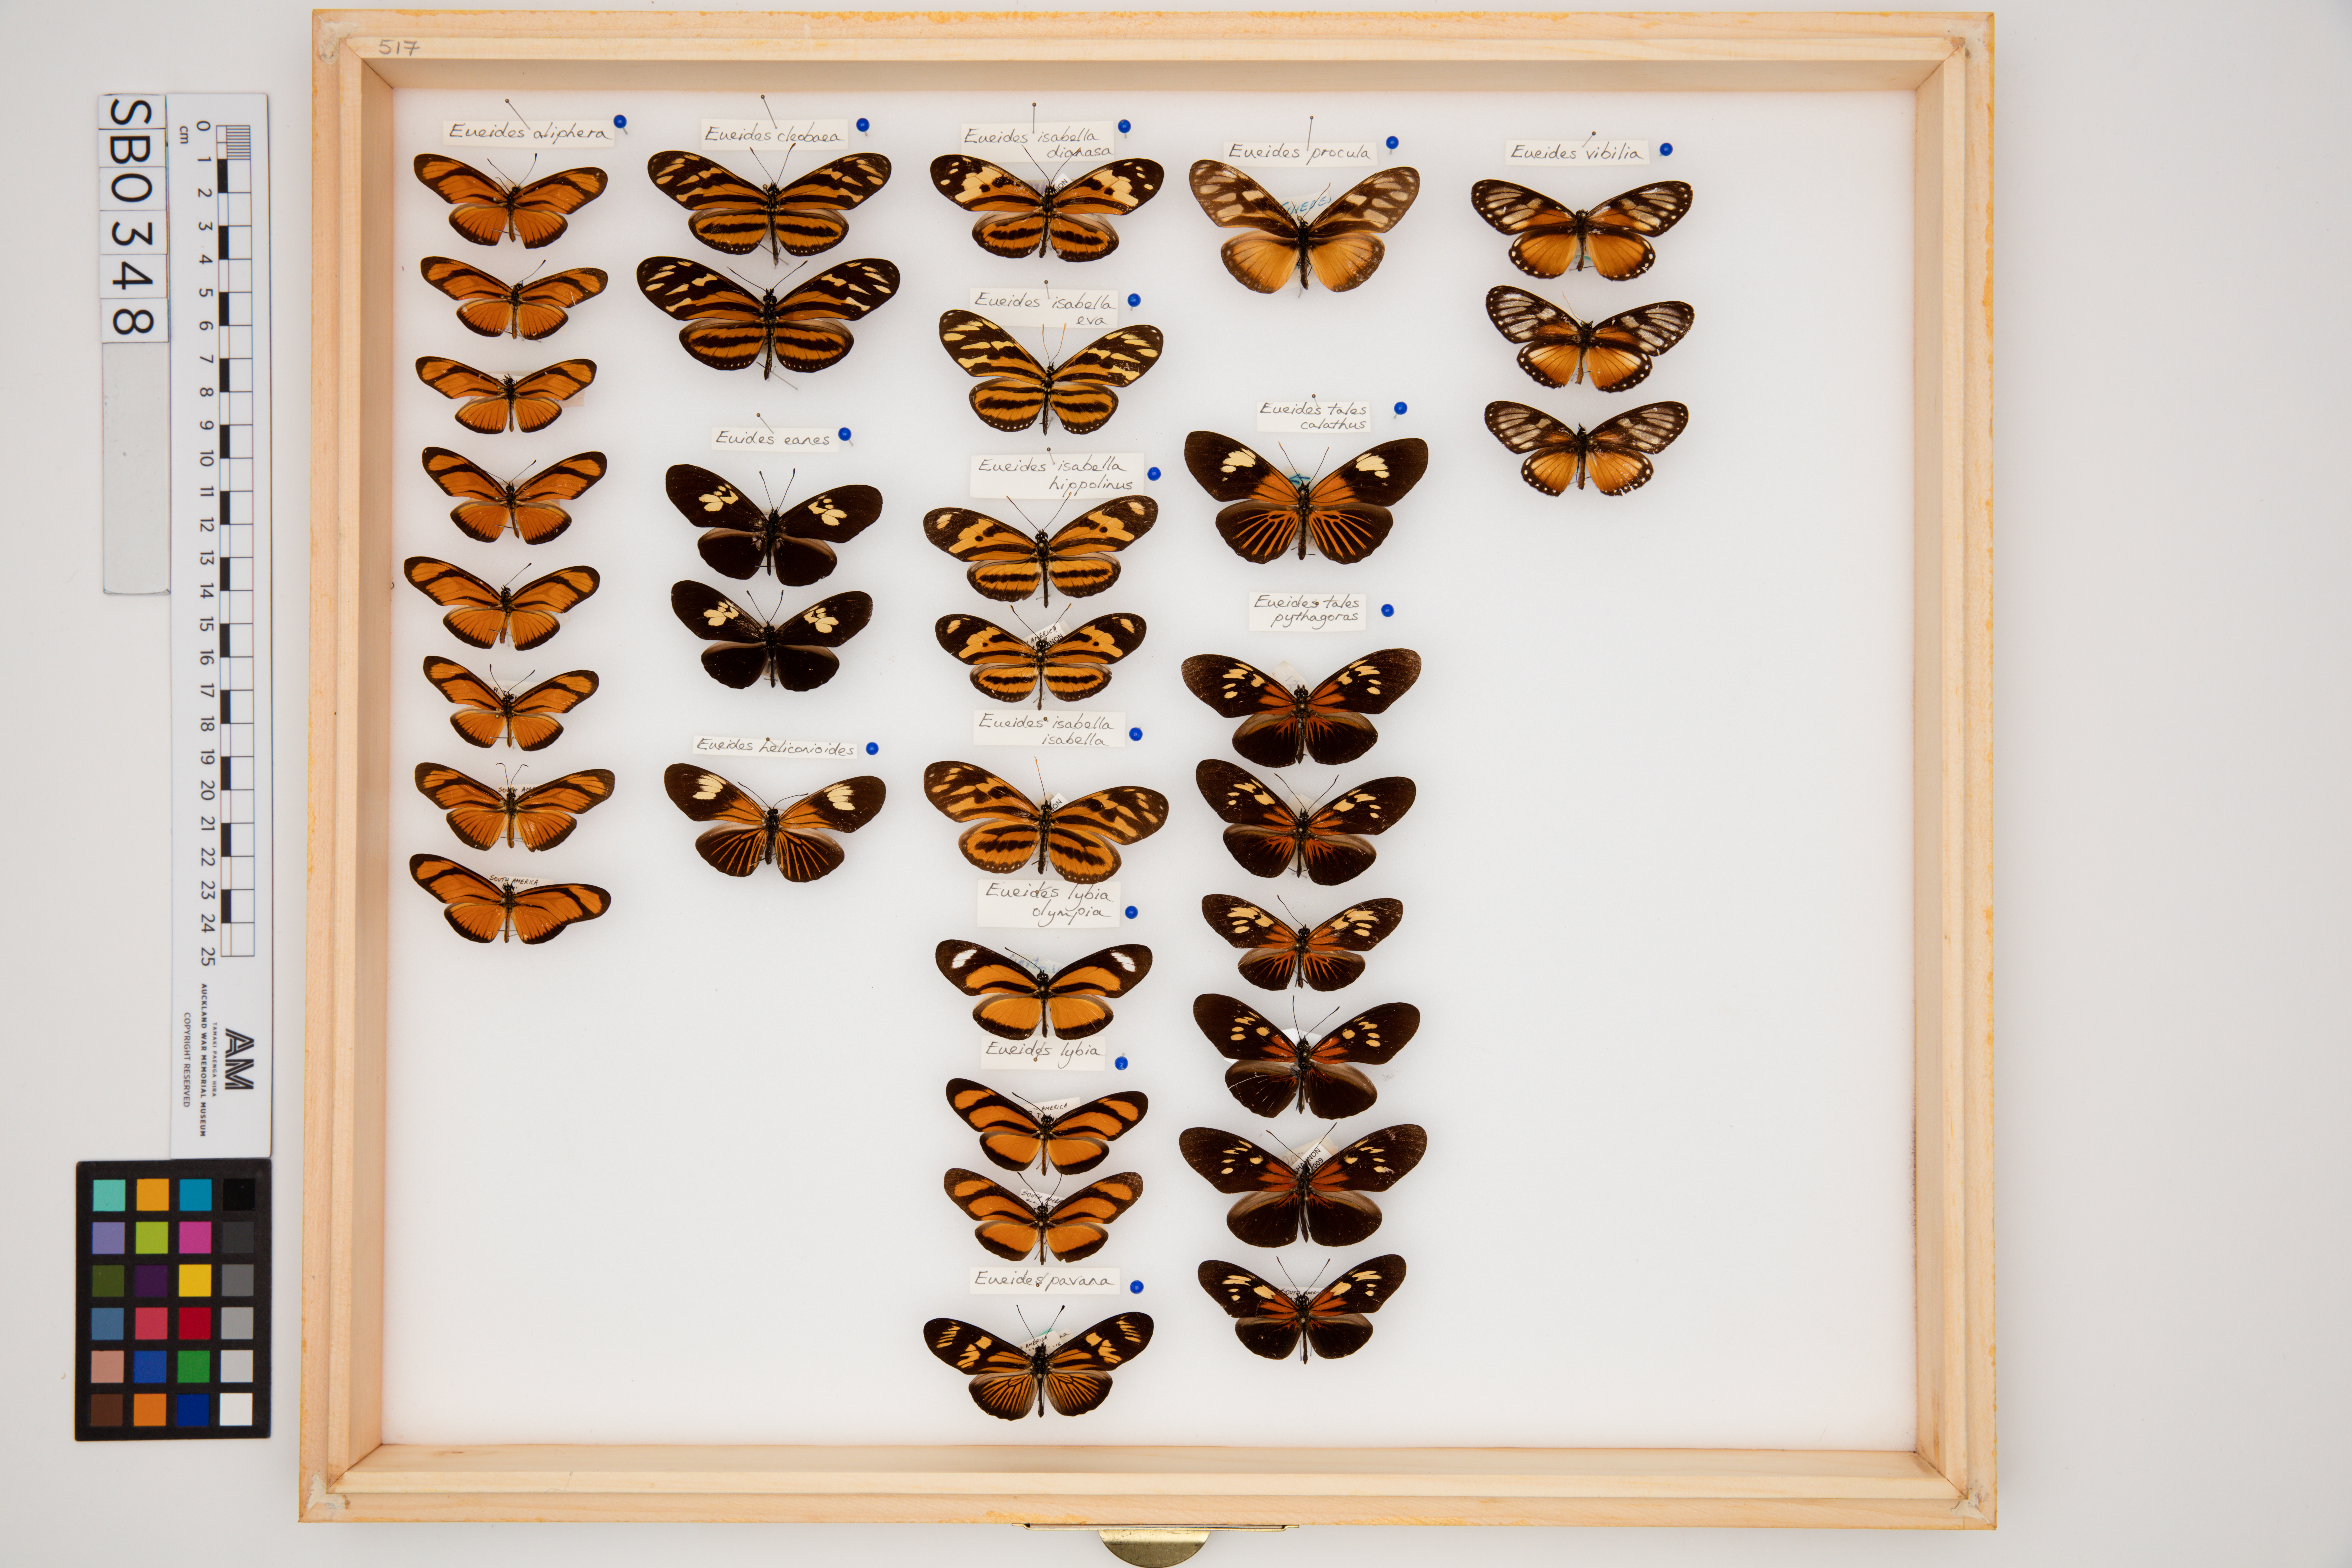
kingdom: Animalia
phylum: Arthropoda
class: Insecta
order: Lepidoptera
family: Nymphalidae
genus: Eueides
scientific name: Eueides tales
